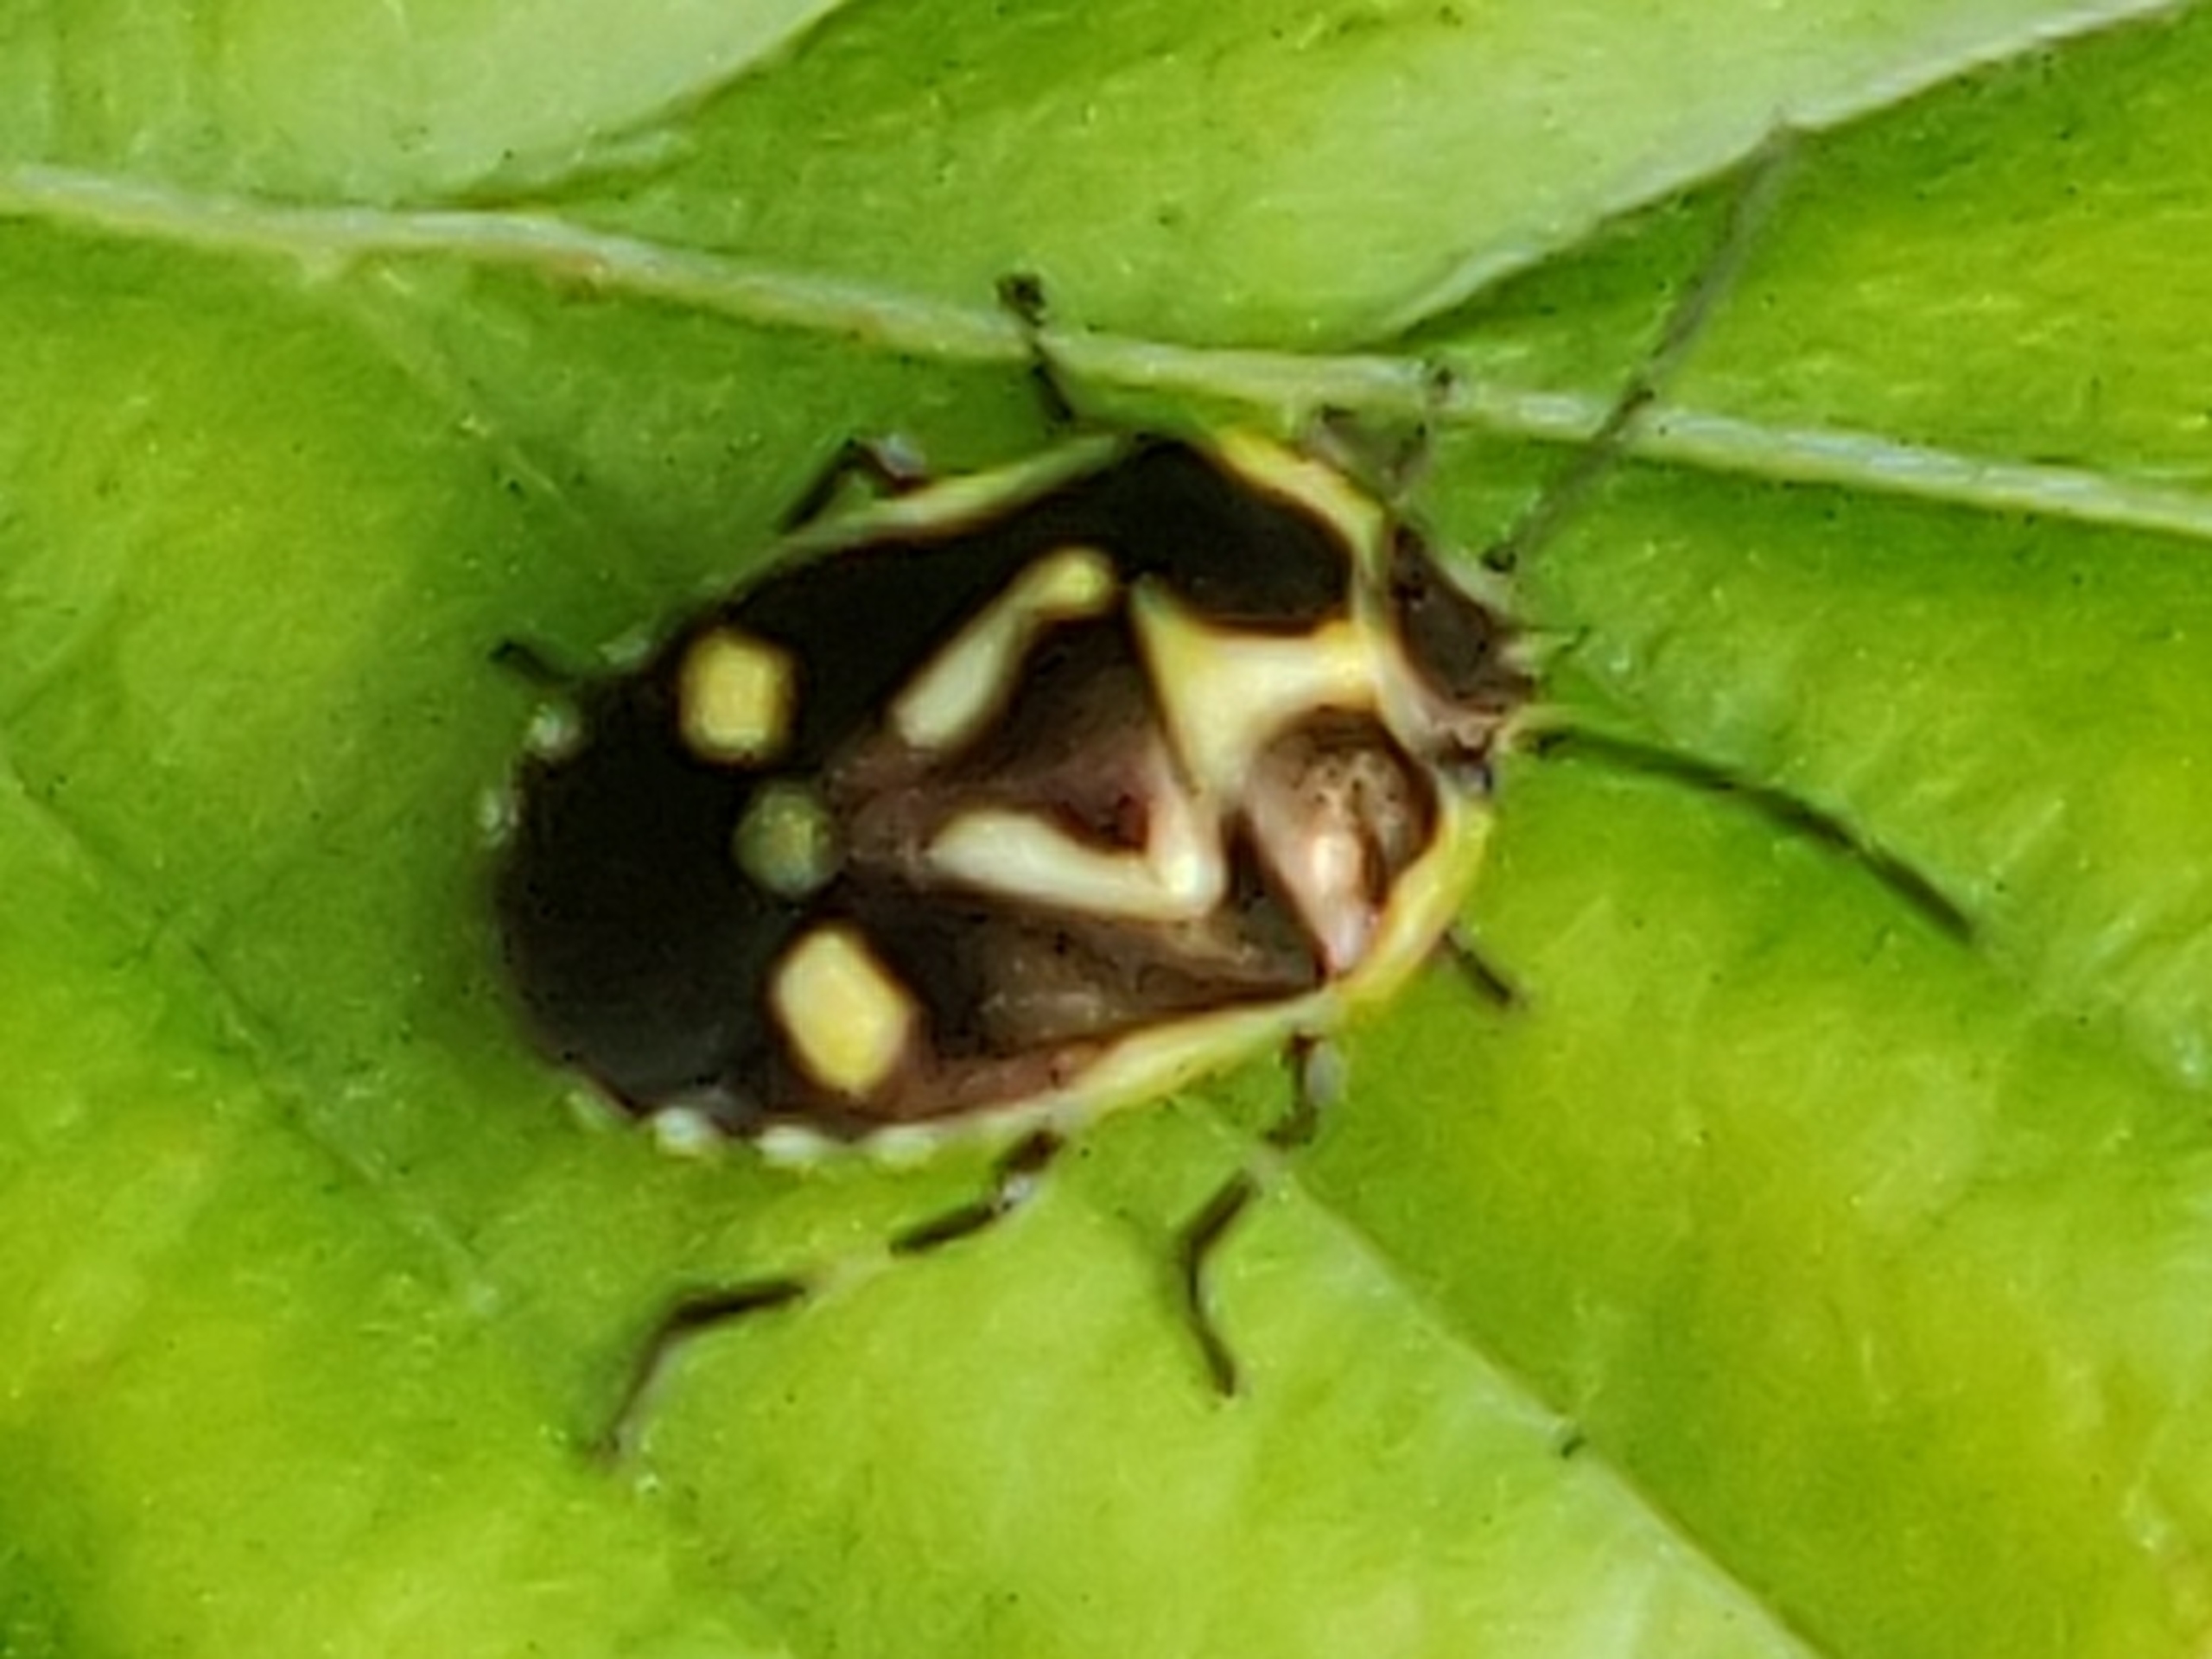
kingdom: Animalia
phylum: Arthropoda
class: Insecta
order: Hemiptera
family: Pentatomidae
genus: Eurydema
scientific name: Eurydema oleracea
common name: Almindelig kåltæge
